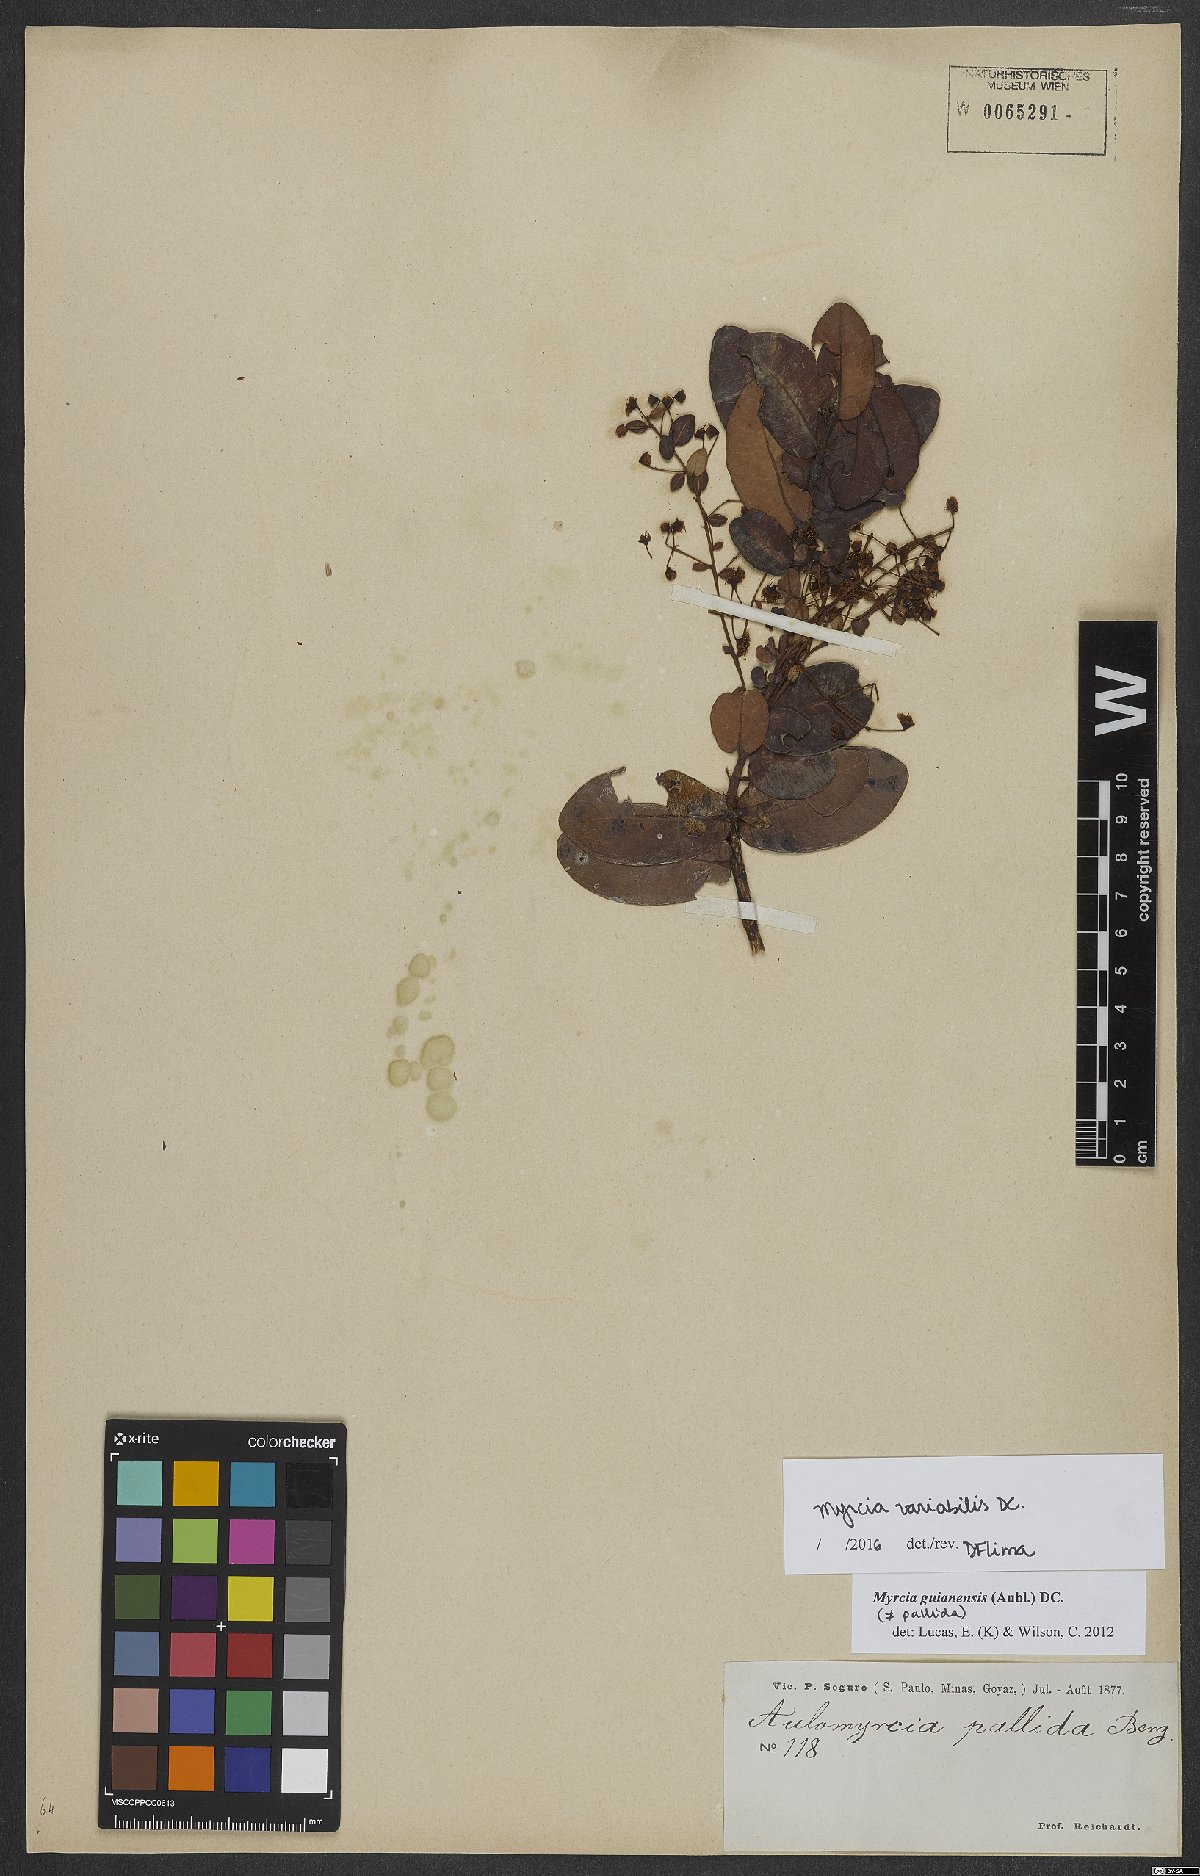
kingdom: Plantae
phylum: Tracheophyta
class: Magnoliopsida
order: Myrtales
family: Myrtaceae
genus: Myrcia
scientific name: Myrcia variabilis
